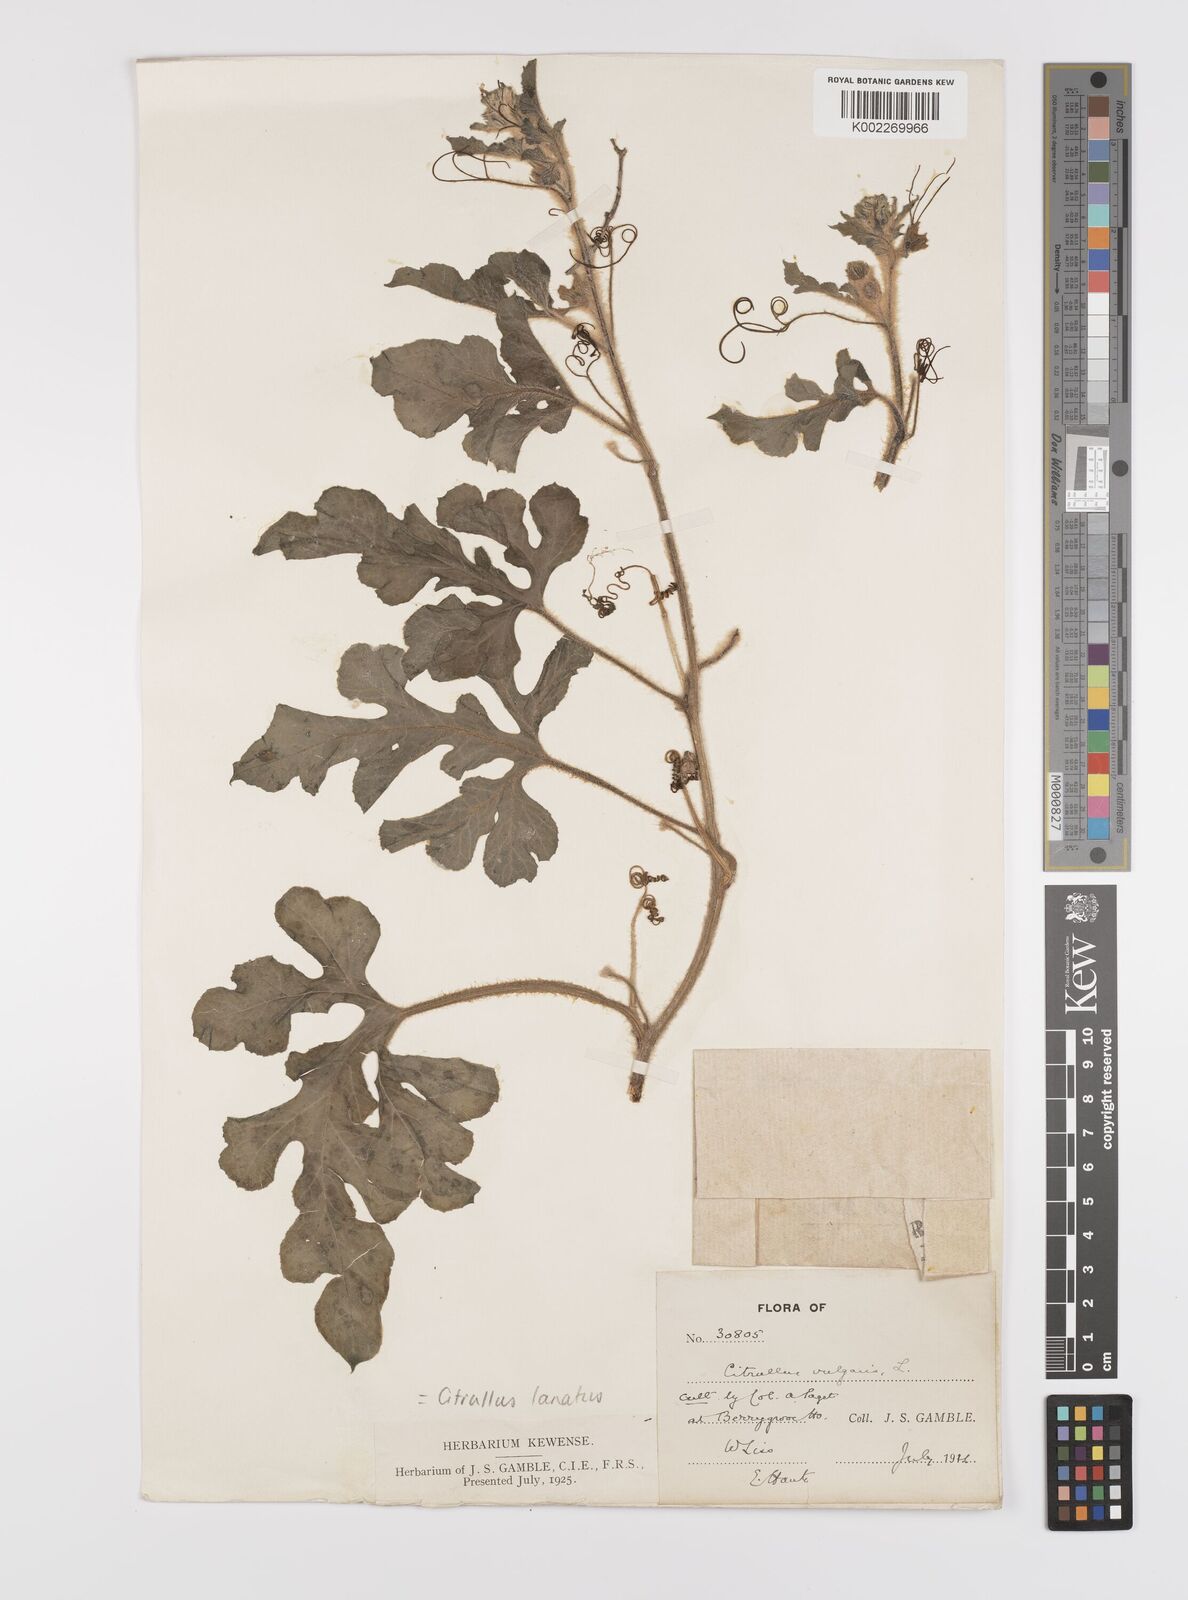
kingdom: Plantae
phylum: Tracheophyta
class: Magnoliopsida
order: Cucurbitales
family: Cucurbitaceae
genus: Citrullus
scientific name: Citrullus lanatus
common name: Watermelon
